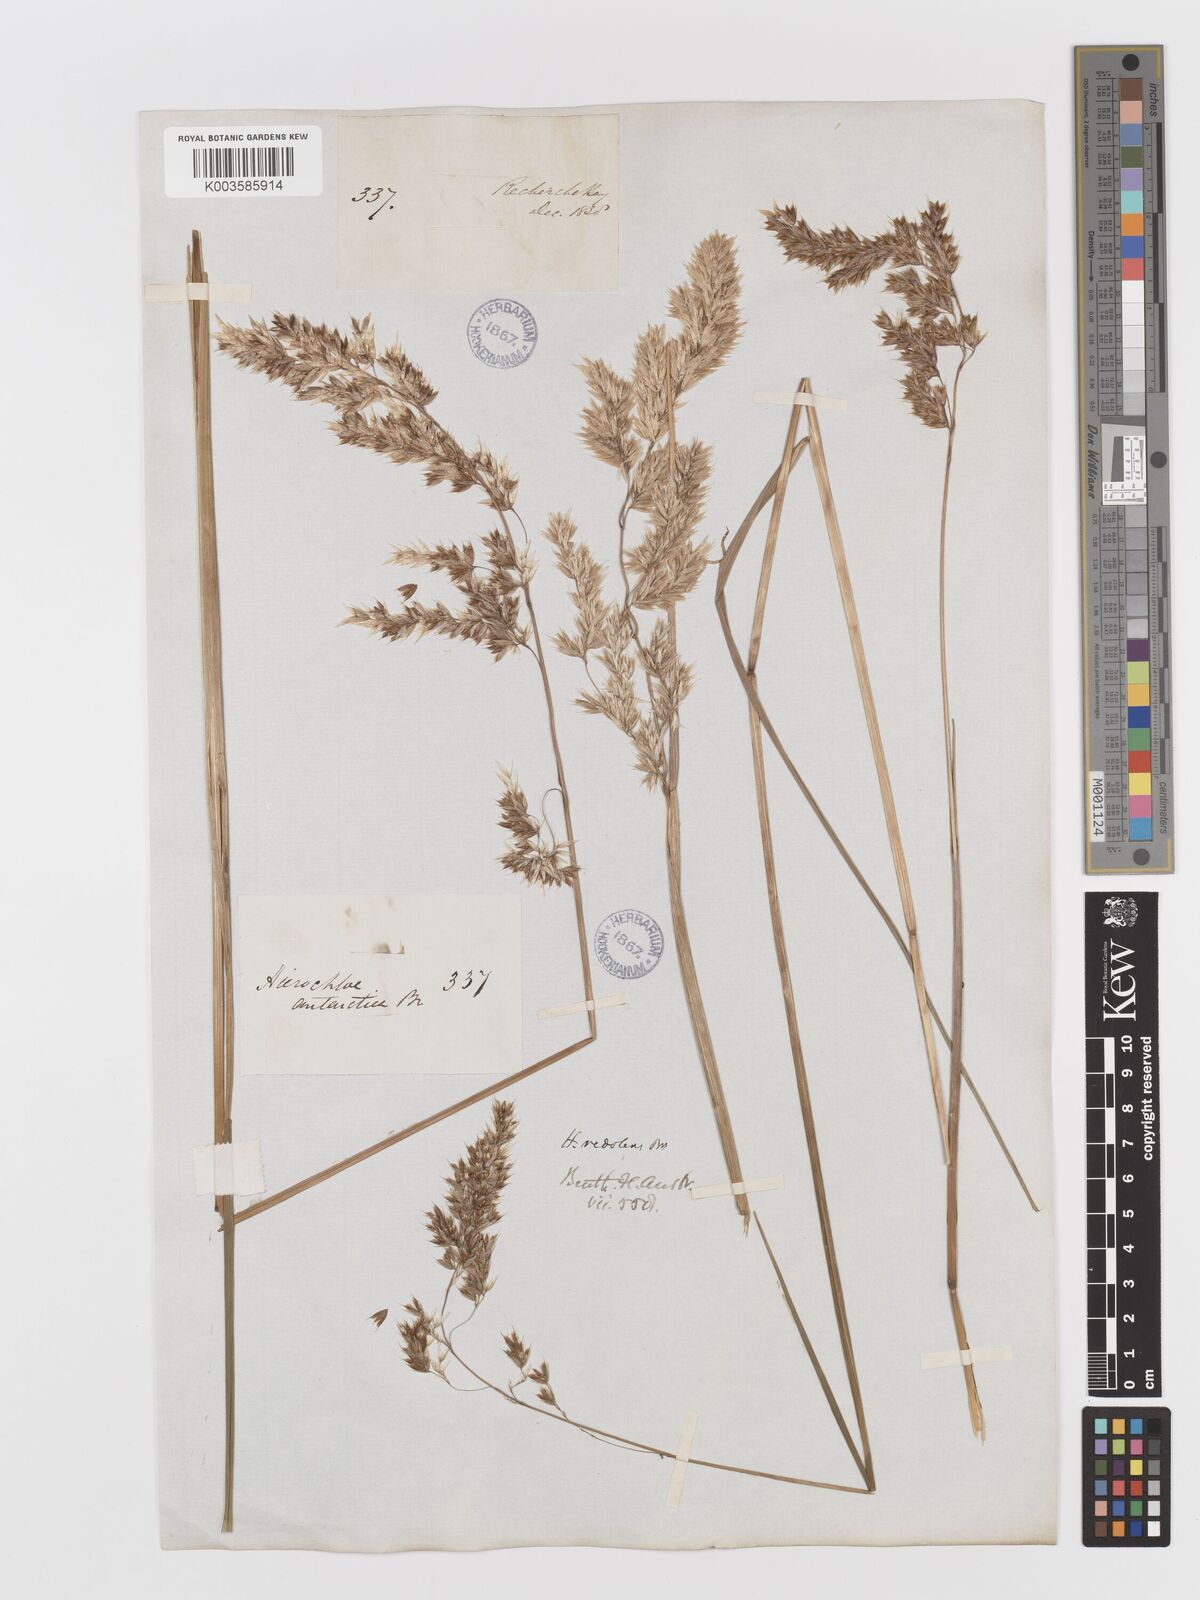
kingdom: Plantae
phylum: Tracheophyta
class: Liliopsida
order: Poales
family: Poaceae
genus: Anthoxanthum
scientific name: Anthoxanthum redolens
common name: Sweet holy grass
